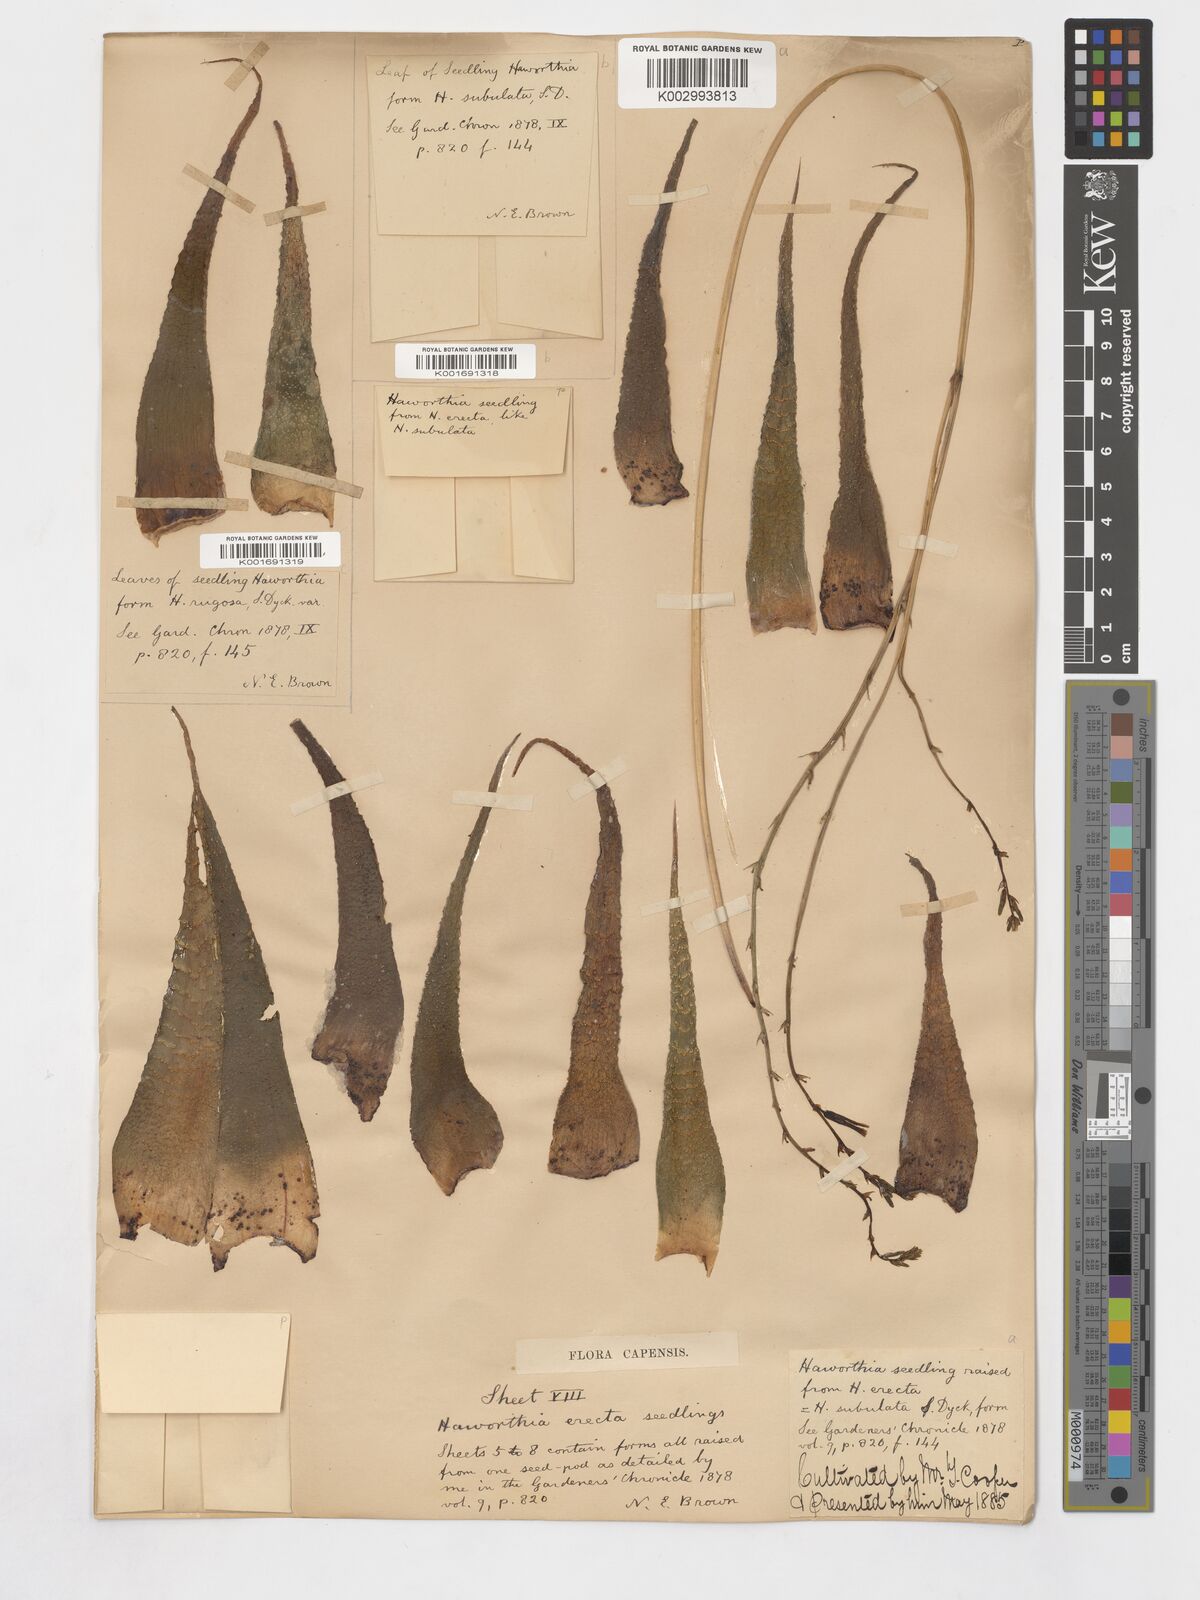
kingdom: Plantae
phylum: Tracheophyta
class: Liliopsida
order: Asparagales
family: Asphodelaceae
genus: Haworthiopsis
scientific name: Haworthiopsis attenuata
